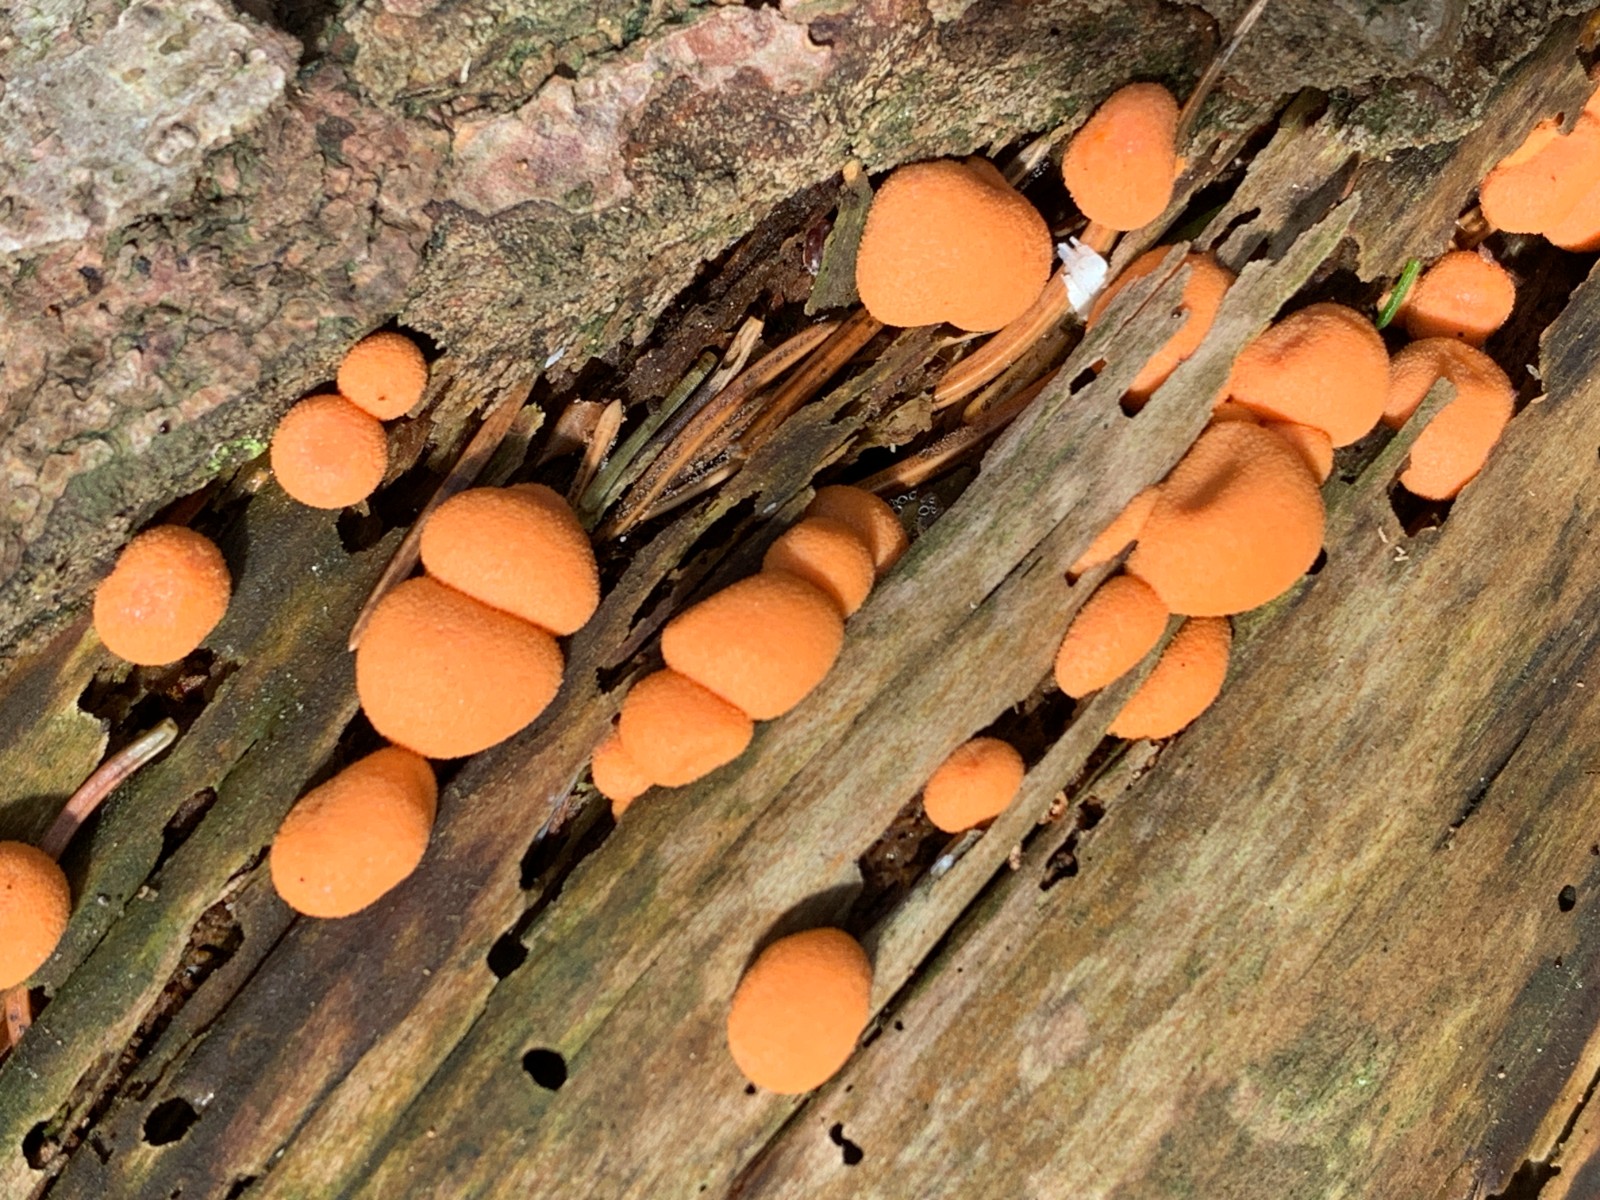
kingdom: Protozoa
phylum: Mycetozoa
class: Myxomycetes
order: Cribrariales
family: Tubiferaceae
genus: Lycogala
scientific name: Lycogala epidendrum
